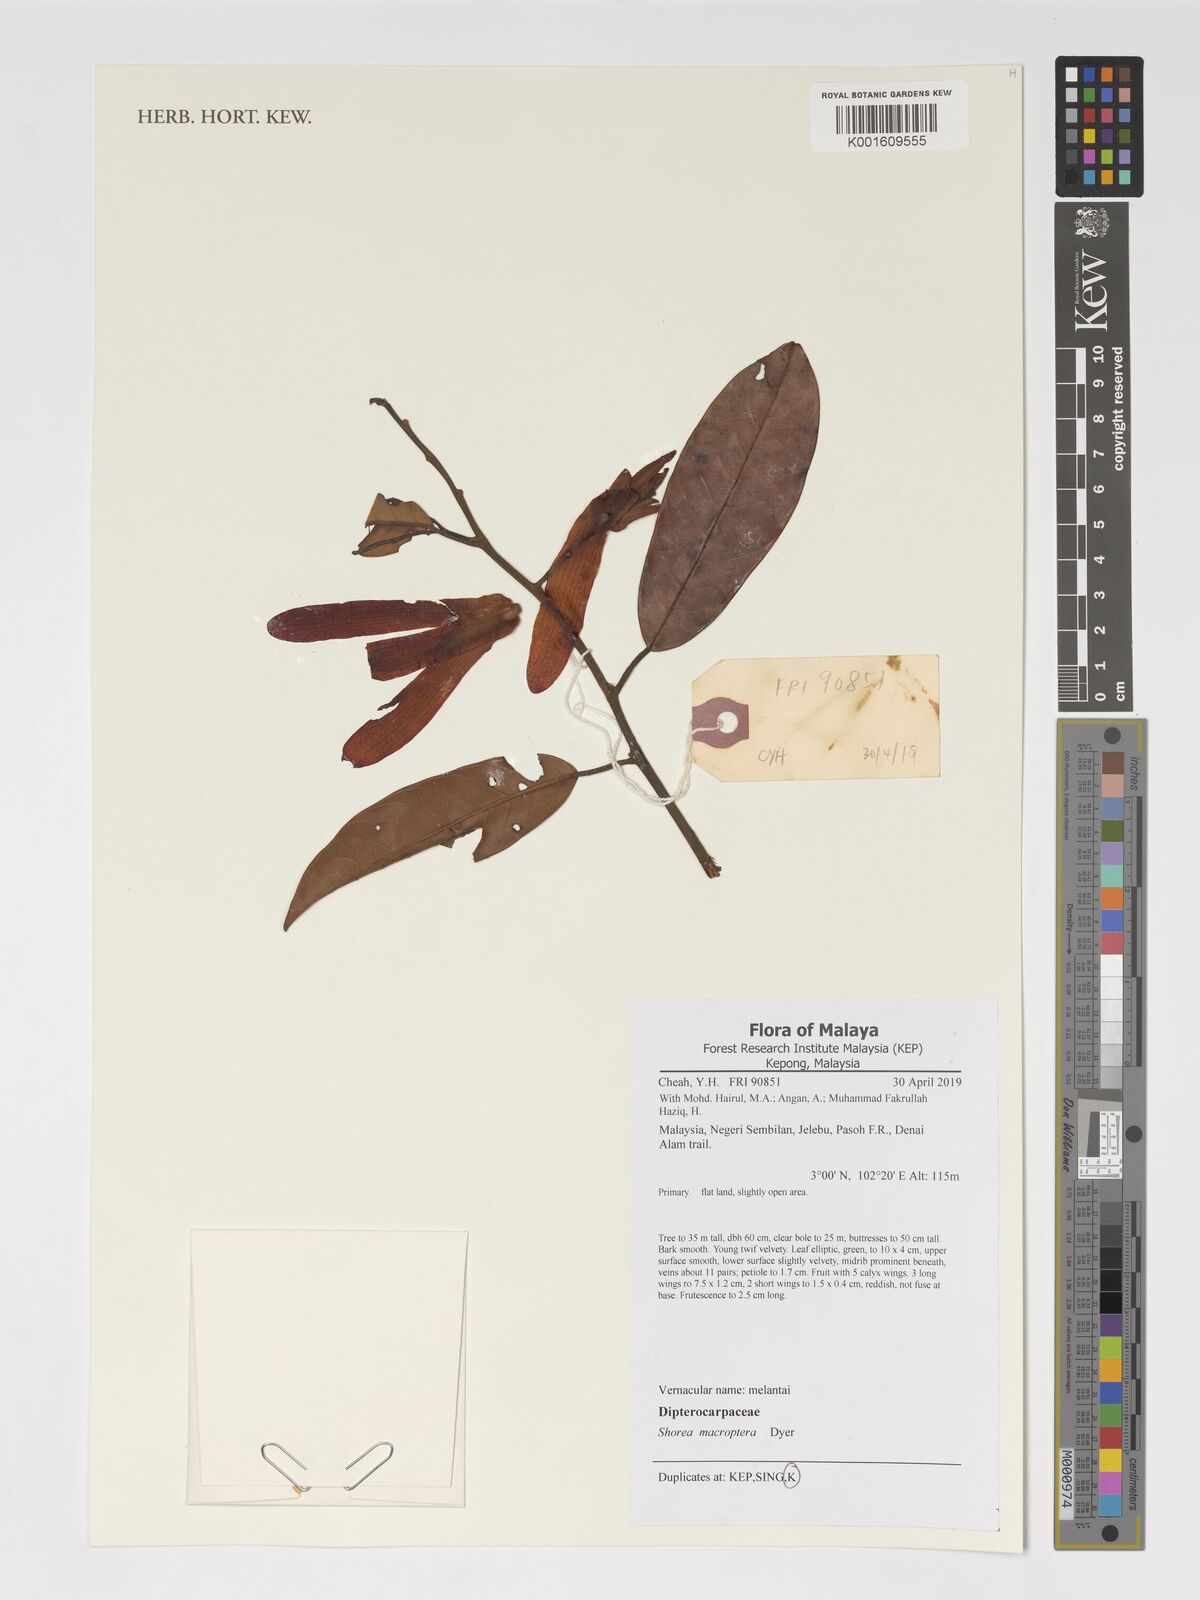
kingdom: Plantae
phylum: Tracheophyta
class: Magnoliopsida
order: Malvales
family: Dipterocarpaceae
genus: Shorea
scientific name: Shorea macroptera
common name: Light red meranti
